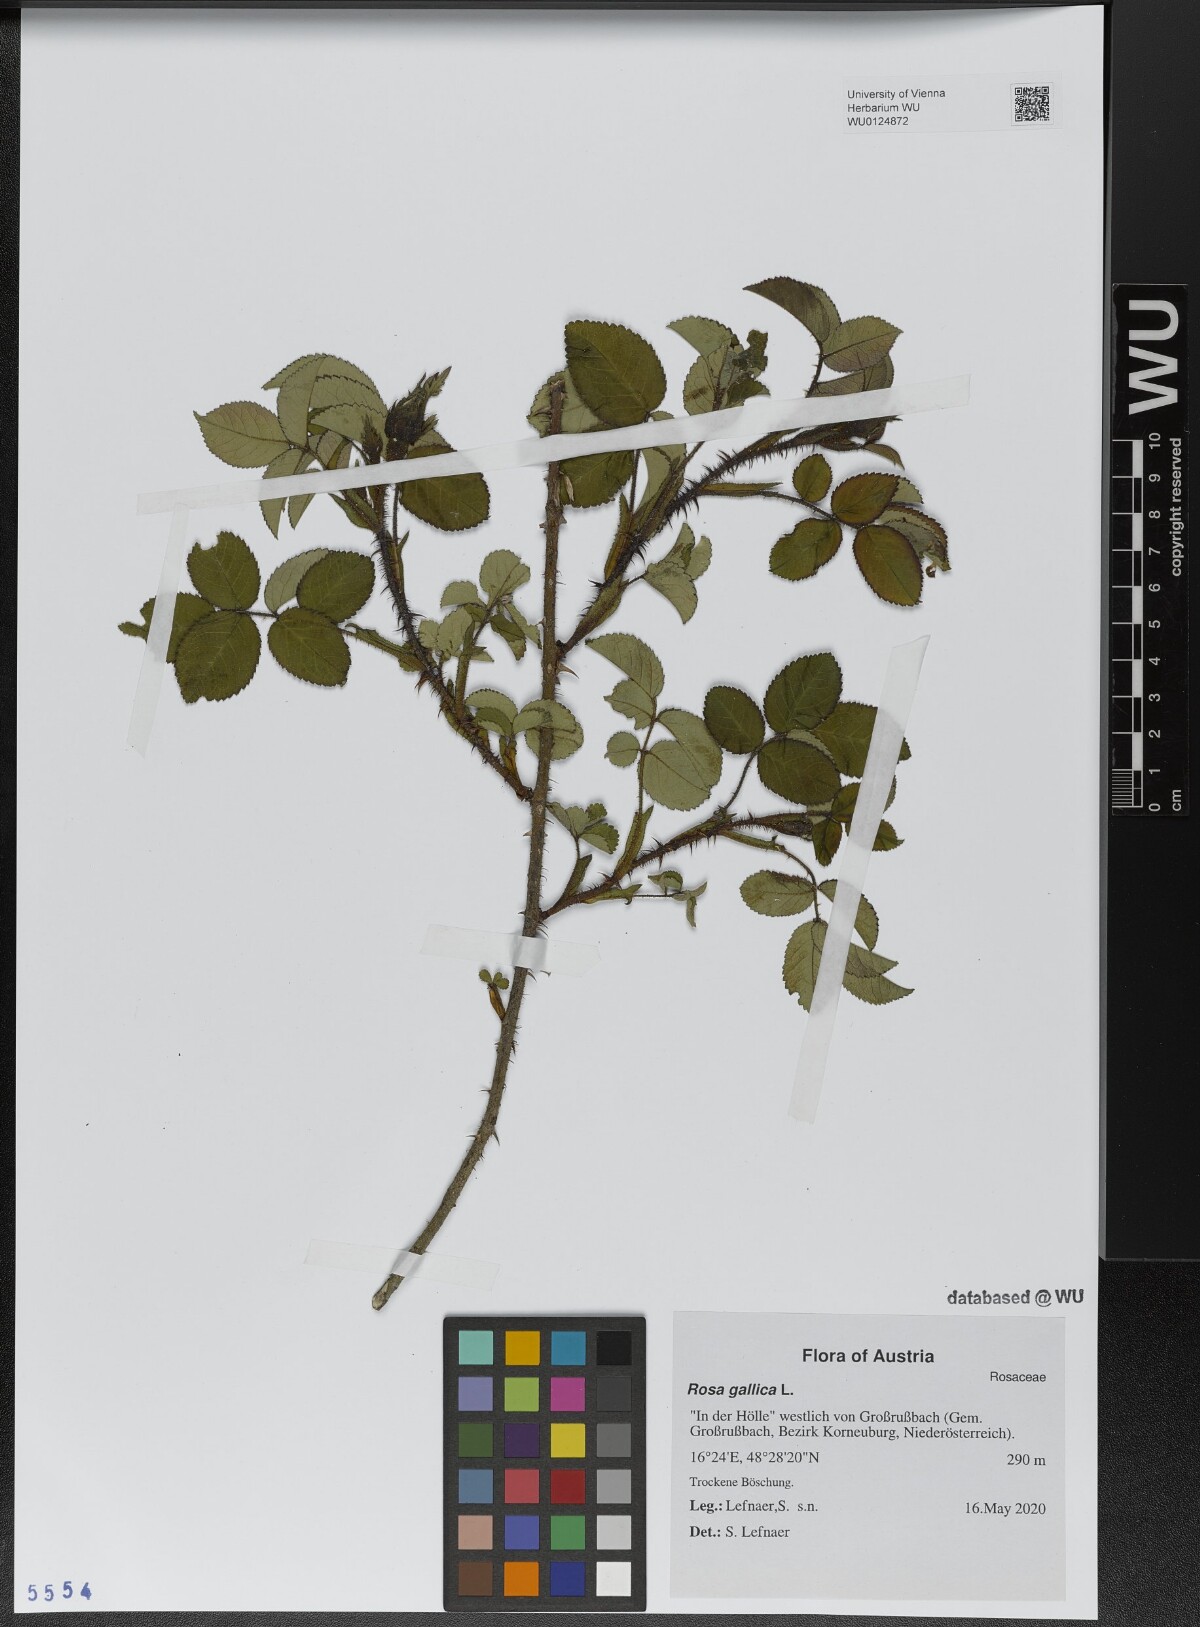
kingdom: Plantae
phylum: Tracheophyta
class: Magnoliopsida
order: Rosales
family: Rosaceae
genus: Rosa
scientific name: Rosa gallica
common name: French rose
